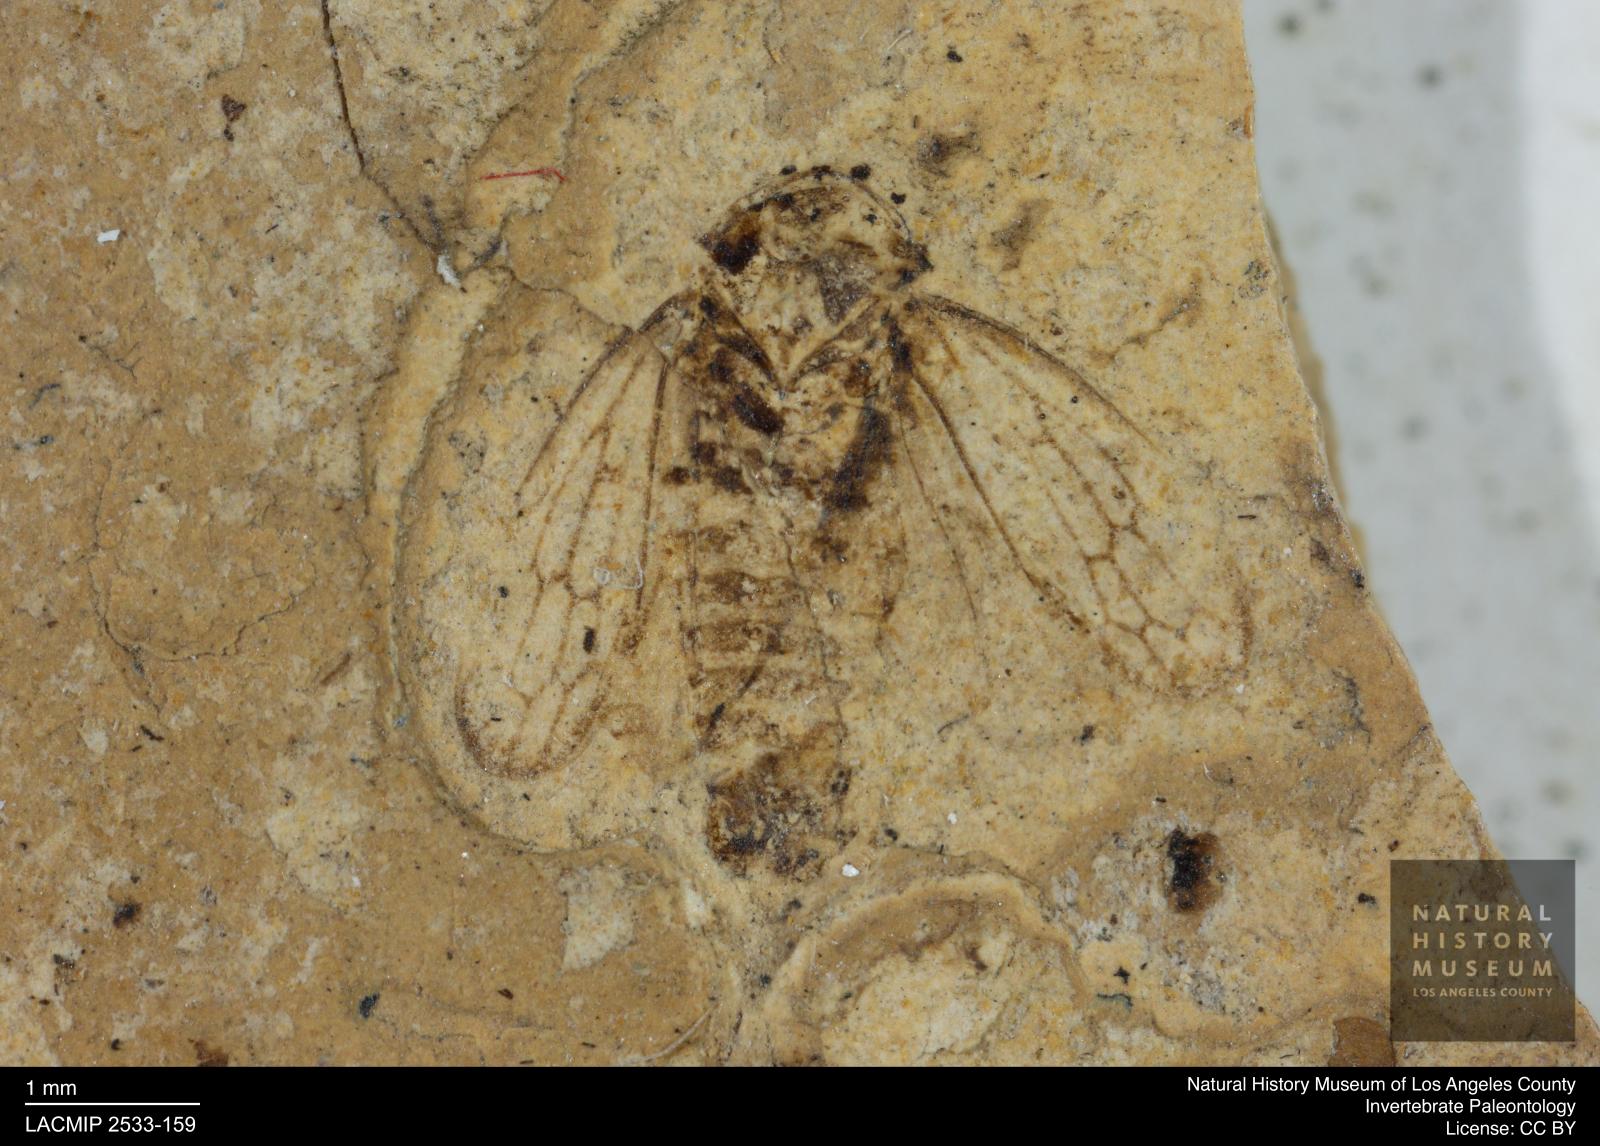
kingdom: Animalia
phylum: Arthropoda
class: Insecta
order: Hemiptera
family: Cicadellidae
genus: Iassus
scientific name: Iassus sepultus
